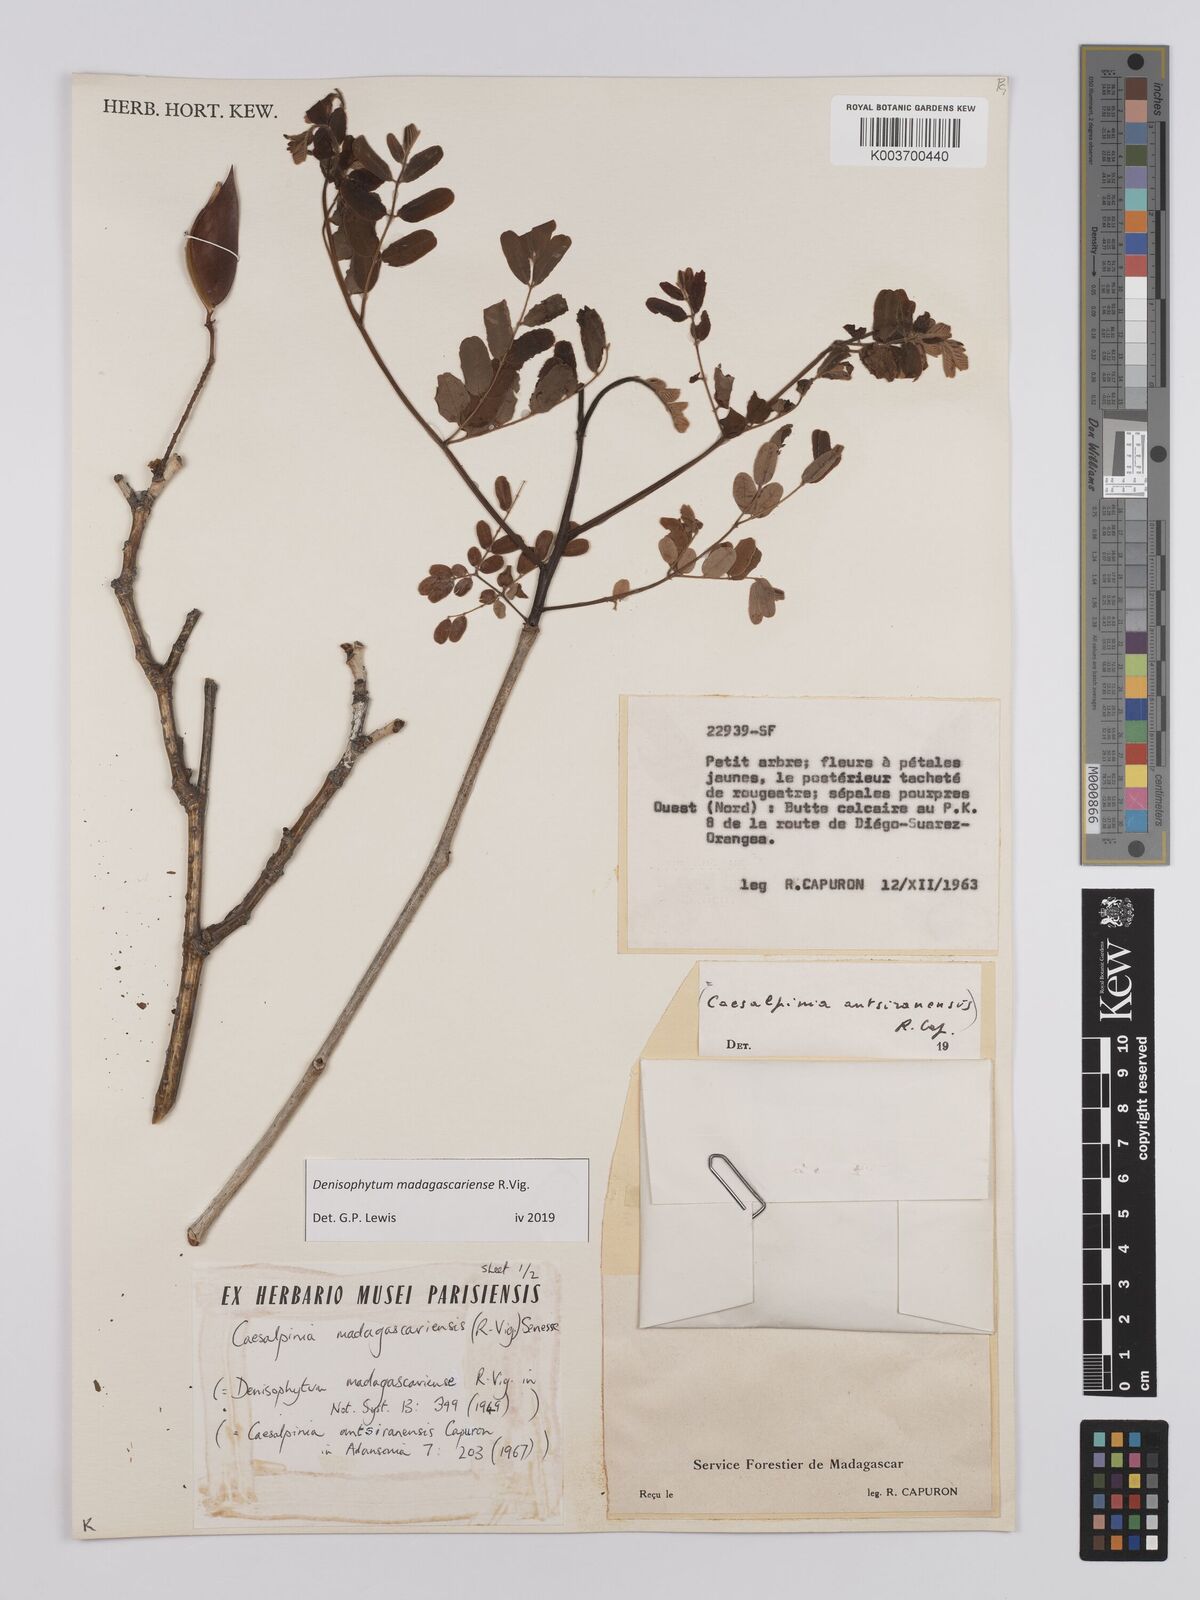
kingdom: Plantae
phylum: Tracheophyta
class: Magnoliopsida
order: Fabales
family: Fabaceae
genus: Denisophytum
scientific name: Denisophytum madagascariense
